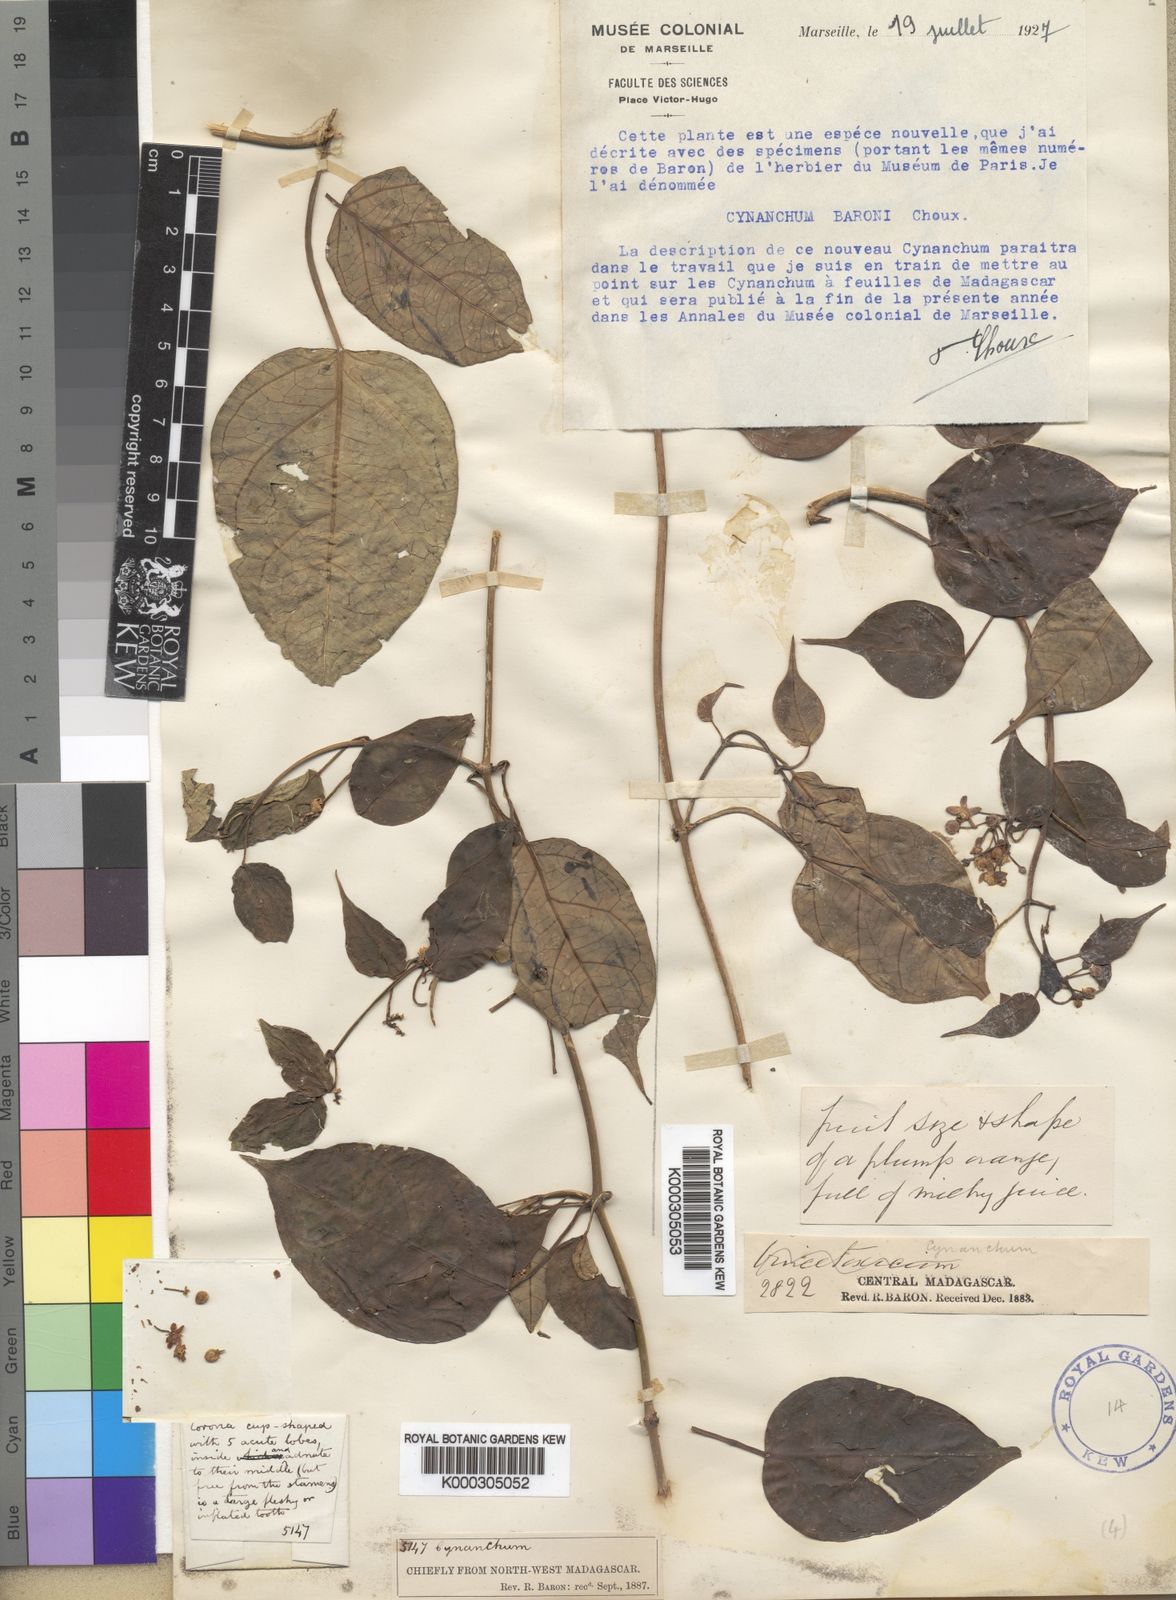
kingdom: Plantae
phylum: Tracheophyta
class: Magnoliopsida
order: Gentianales
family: Apocynaceae
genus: Cynanchum
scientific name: Cynanchum baronii
